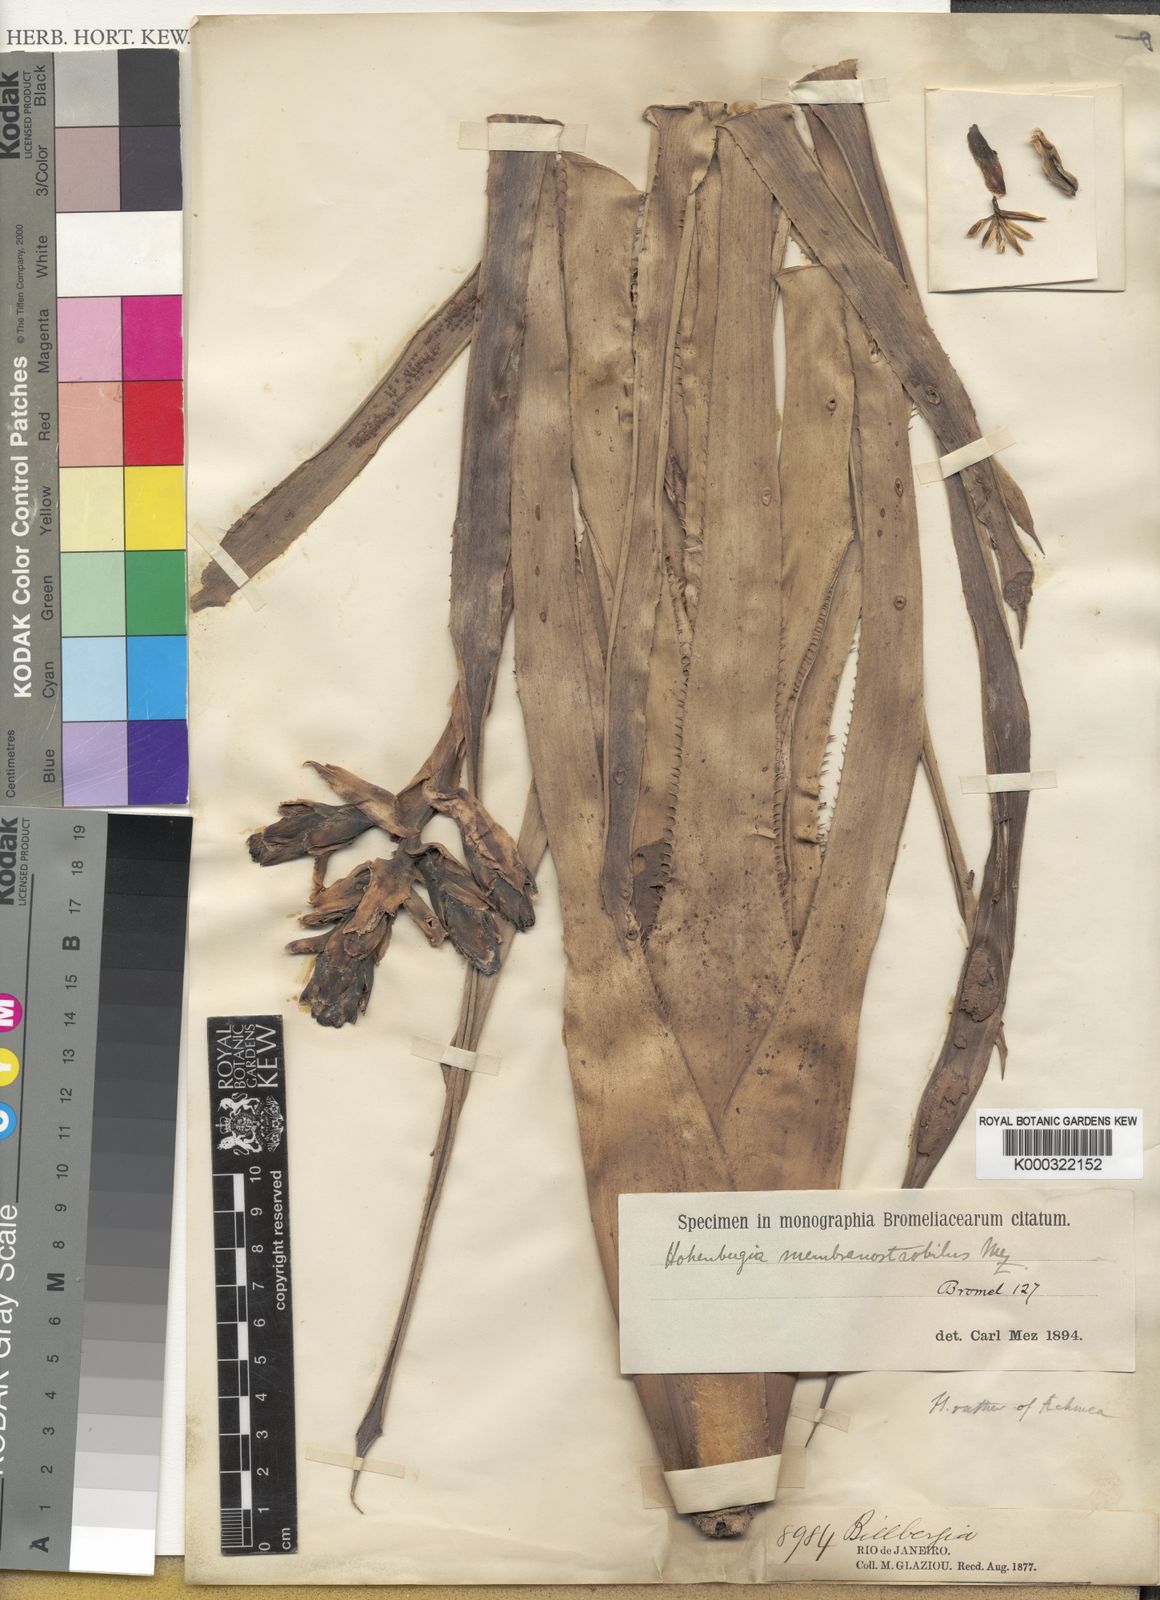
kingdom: Plantae
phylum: Tracheophyta
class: Liliopsida
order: Poales
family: Bromeliaceae
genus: Hohenbergia
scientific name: Hohenbergia membranostrobilus
